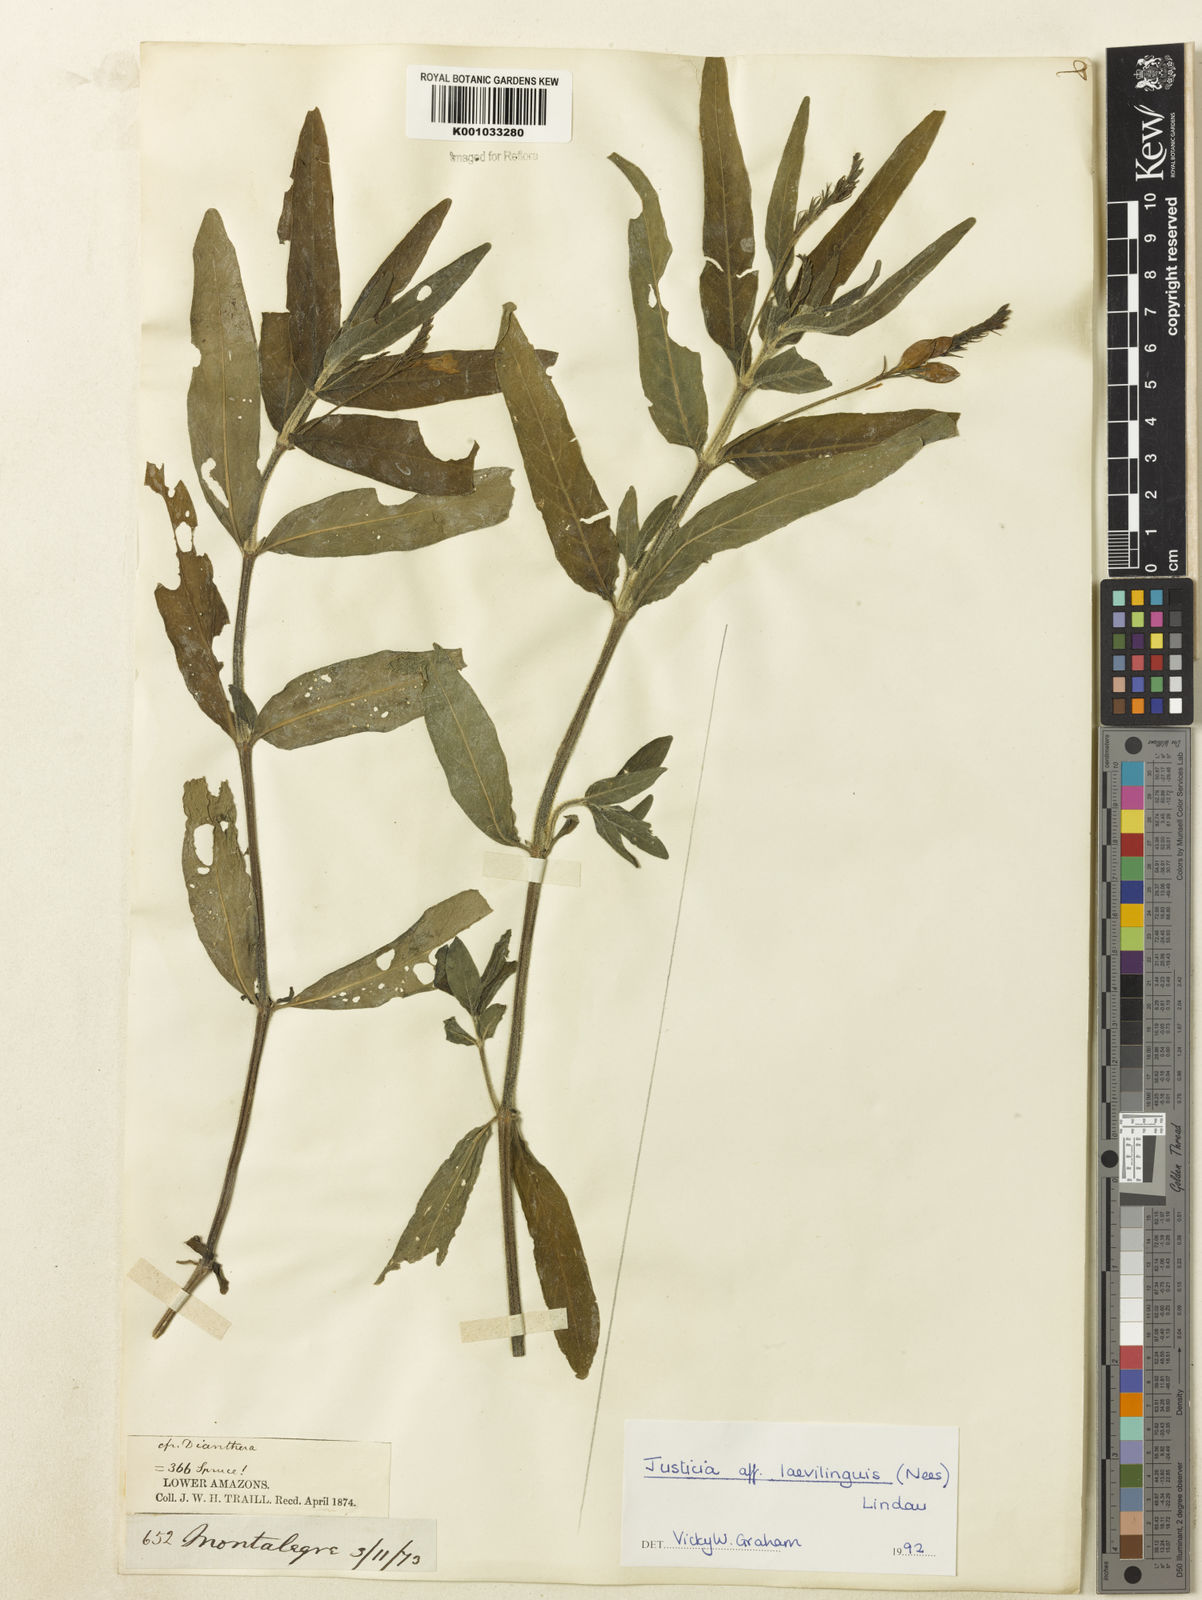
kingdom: Plantae
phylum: Tracheophyta
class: Magnoliopsida
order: Lamiales
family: Acanthaceae
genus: Dianthera
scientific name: Dianthera laevilinguis
